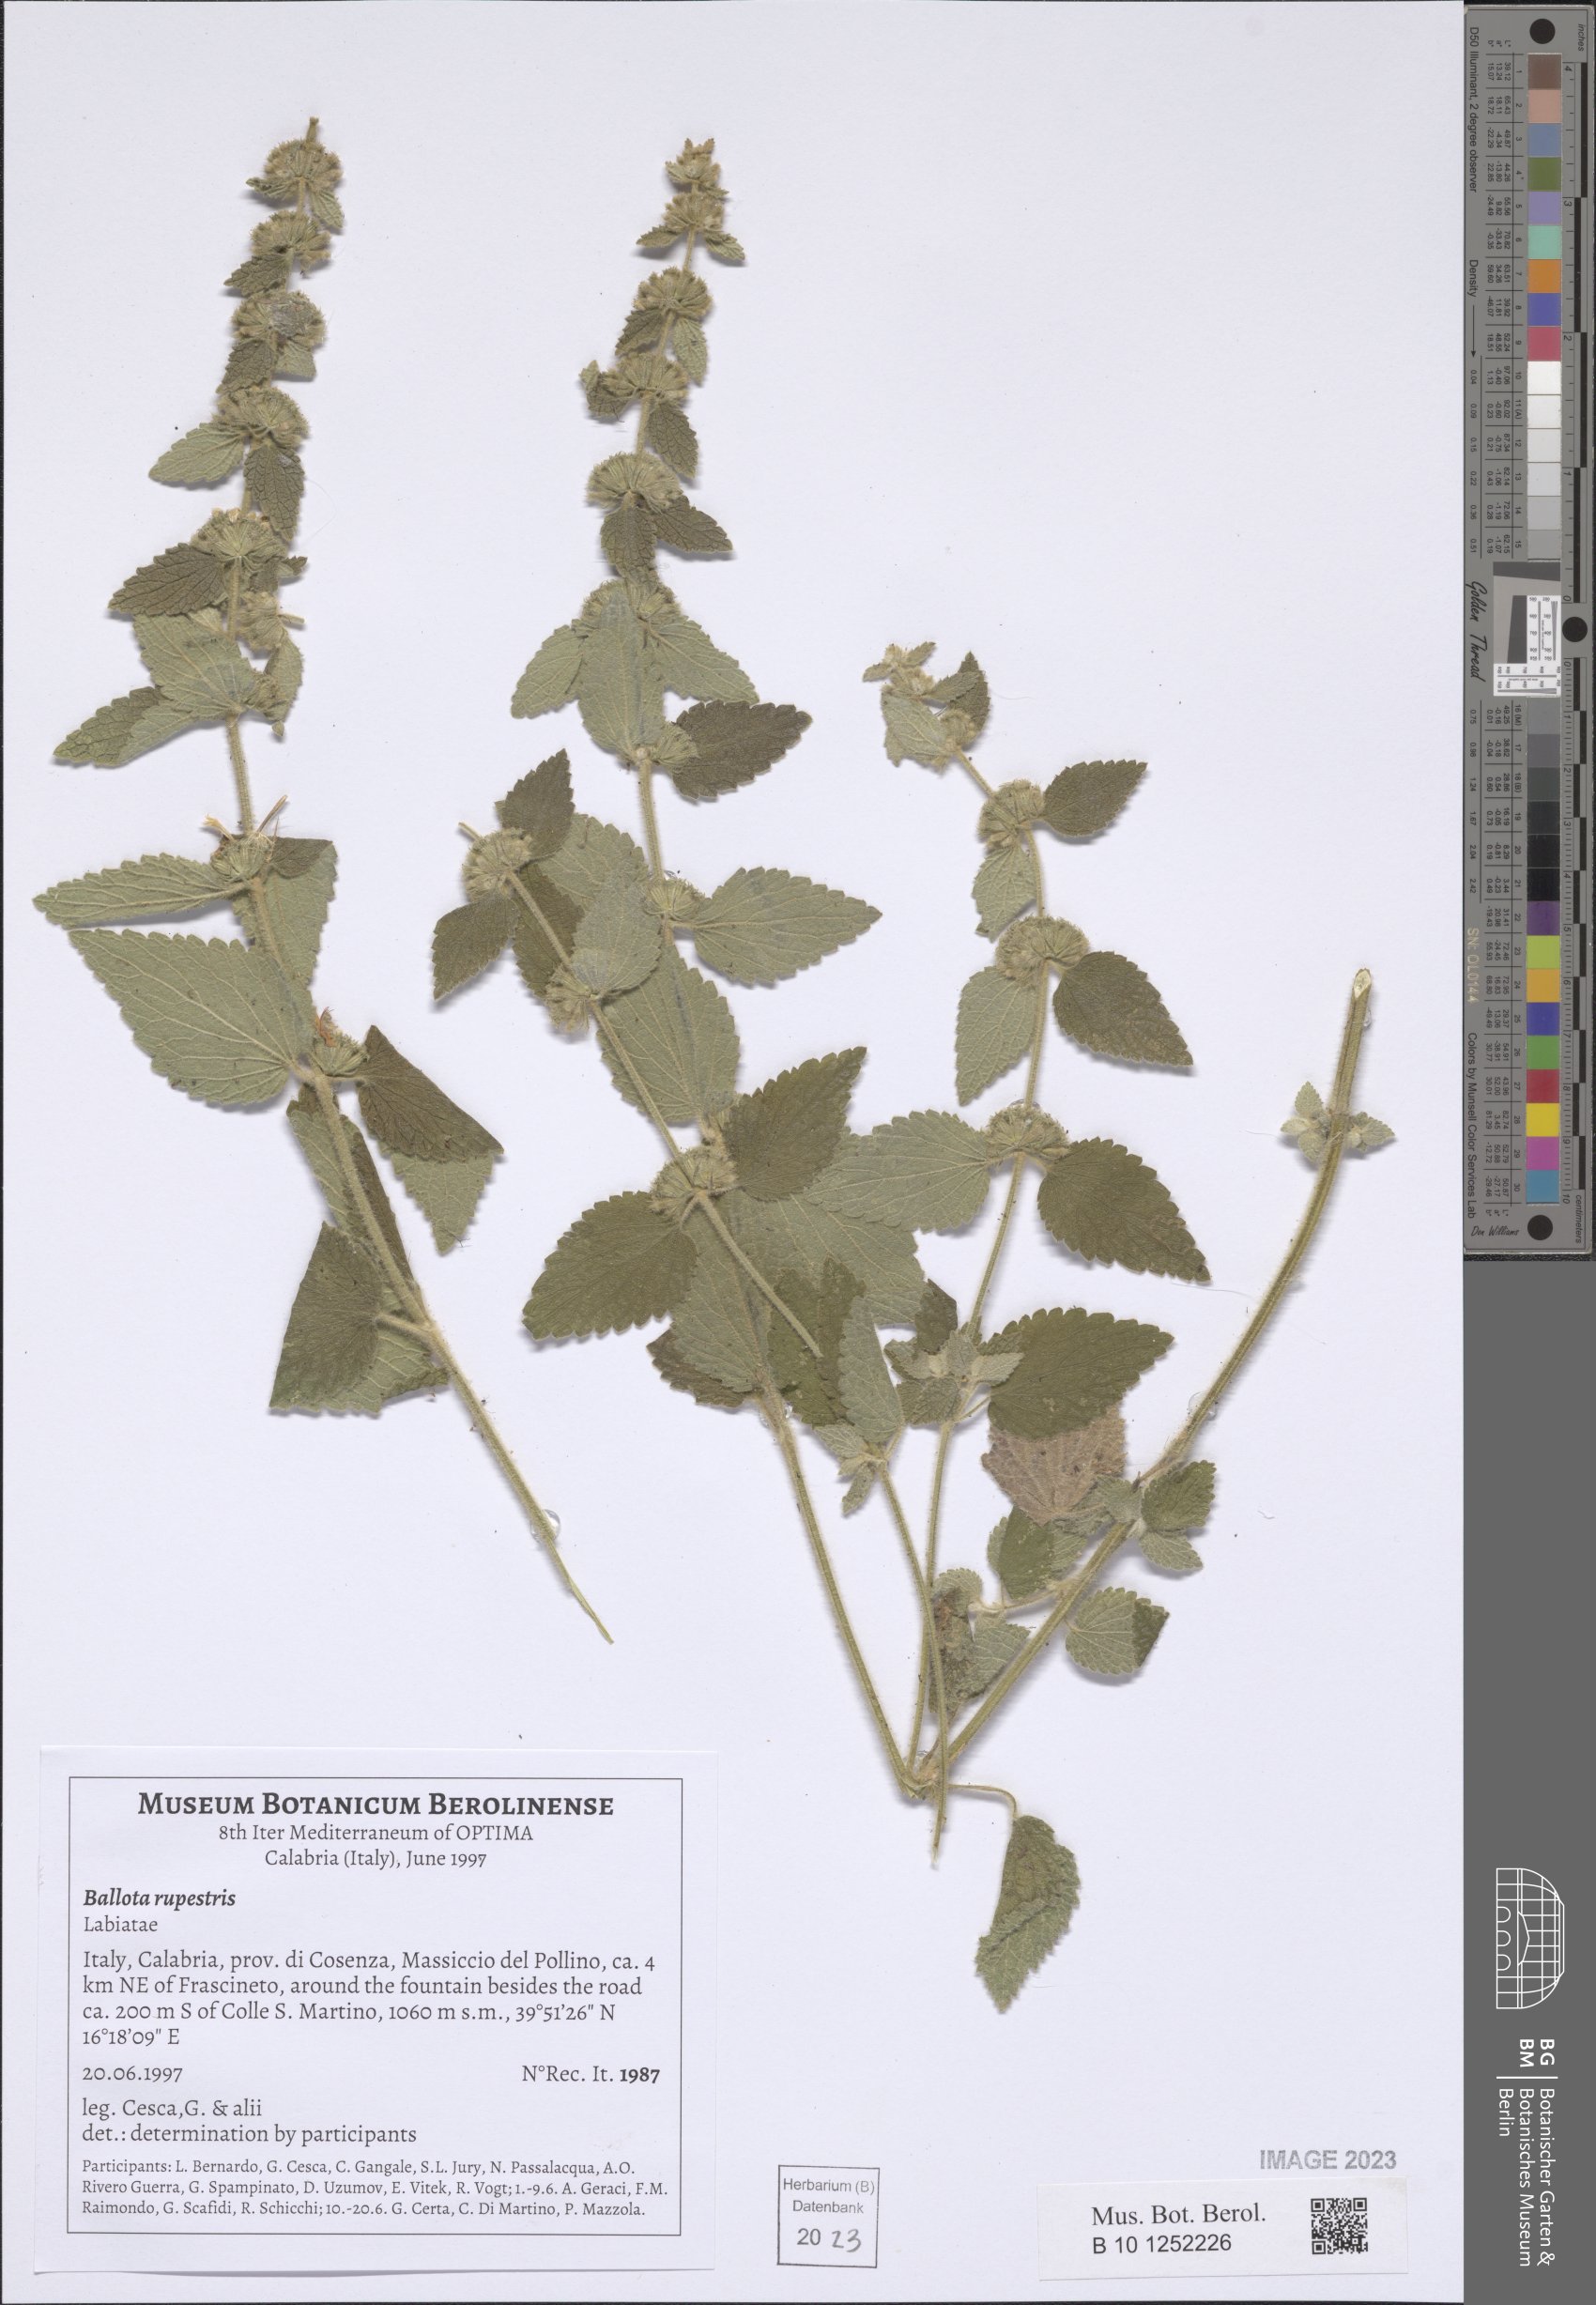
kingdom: Plantae
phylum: Tracheophyta
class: Magnoliopsida
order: Lamiales
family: Lamiaceae
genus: Pseudodictamnus
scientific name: Pseudodictamnus hispanicus
